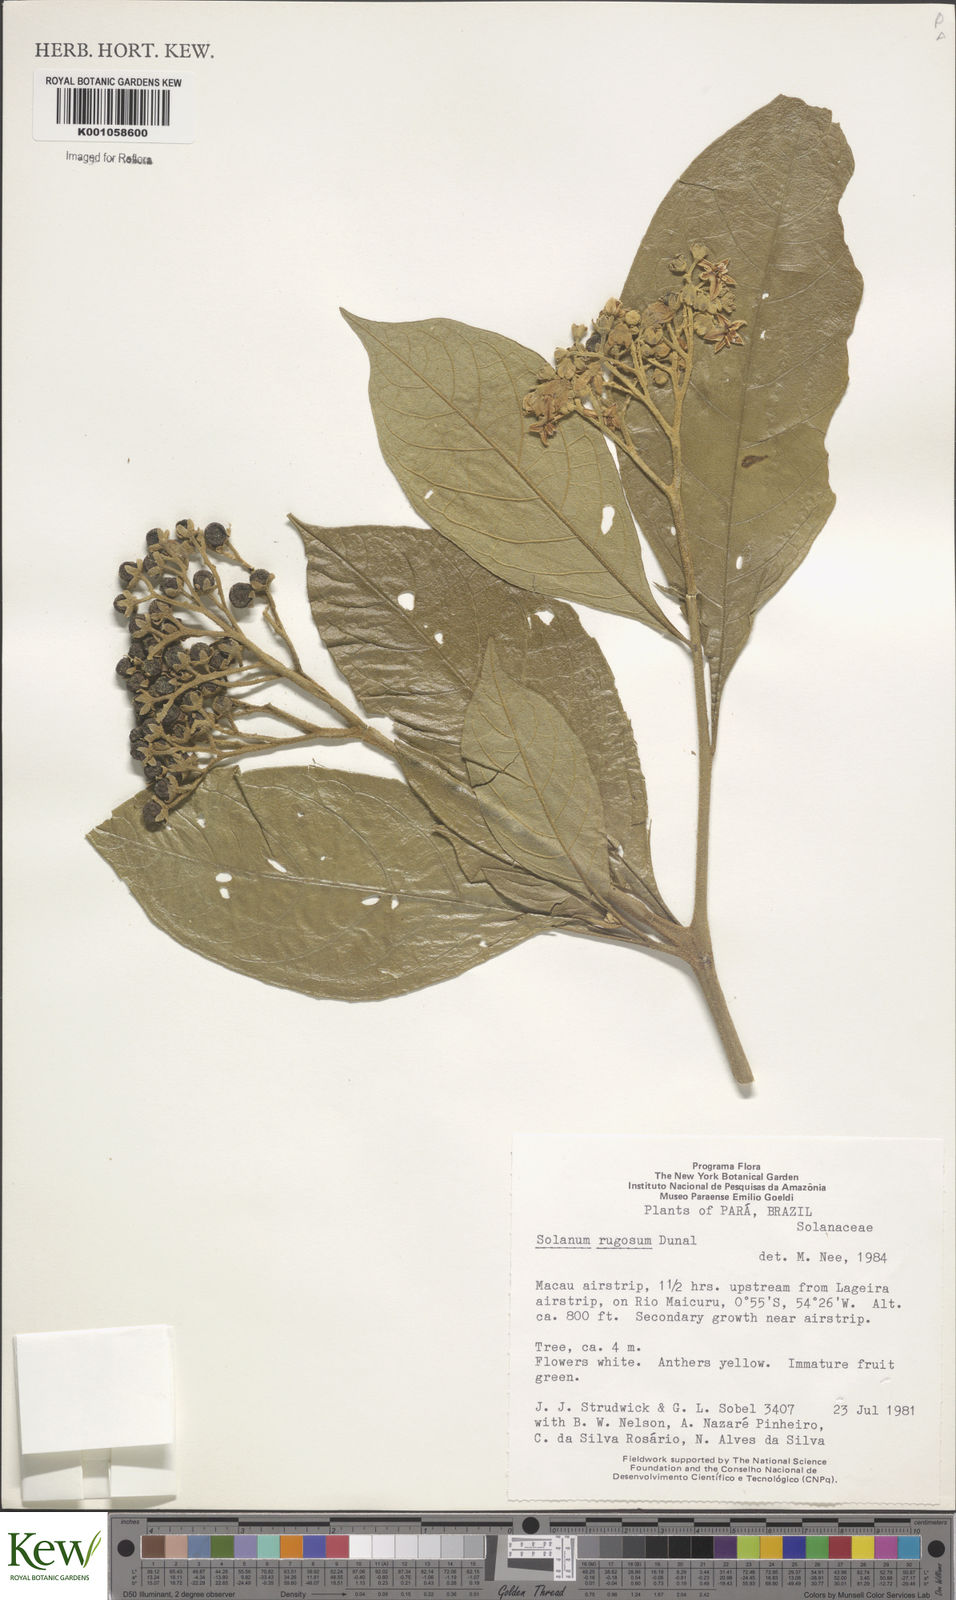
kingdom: Plantae
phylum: Tracheophyta
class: Magnoliopsida
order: Solanales
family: Solanaceae
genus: Solanum
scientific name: Solanum rugosum
